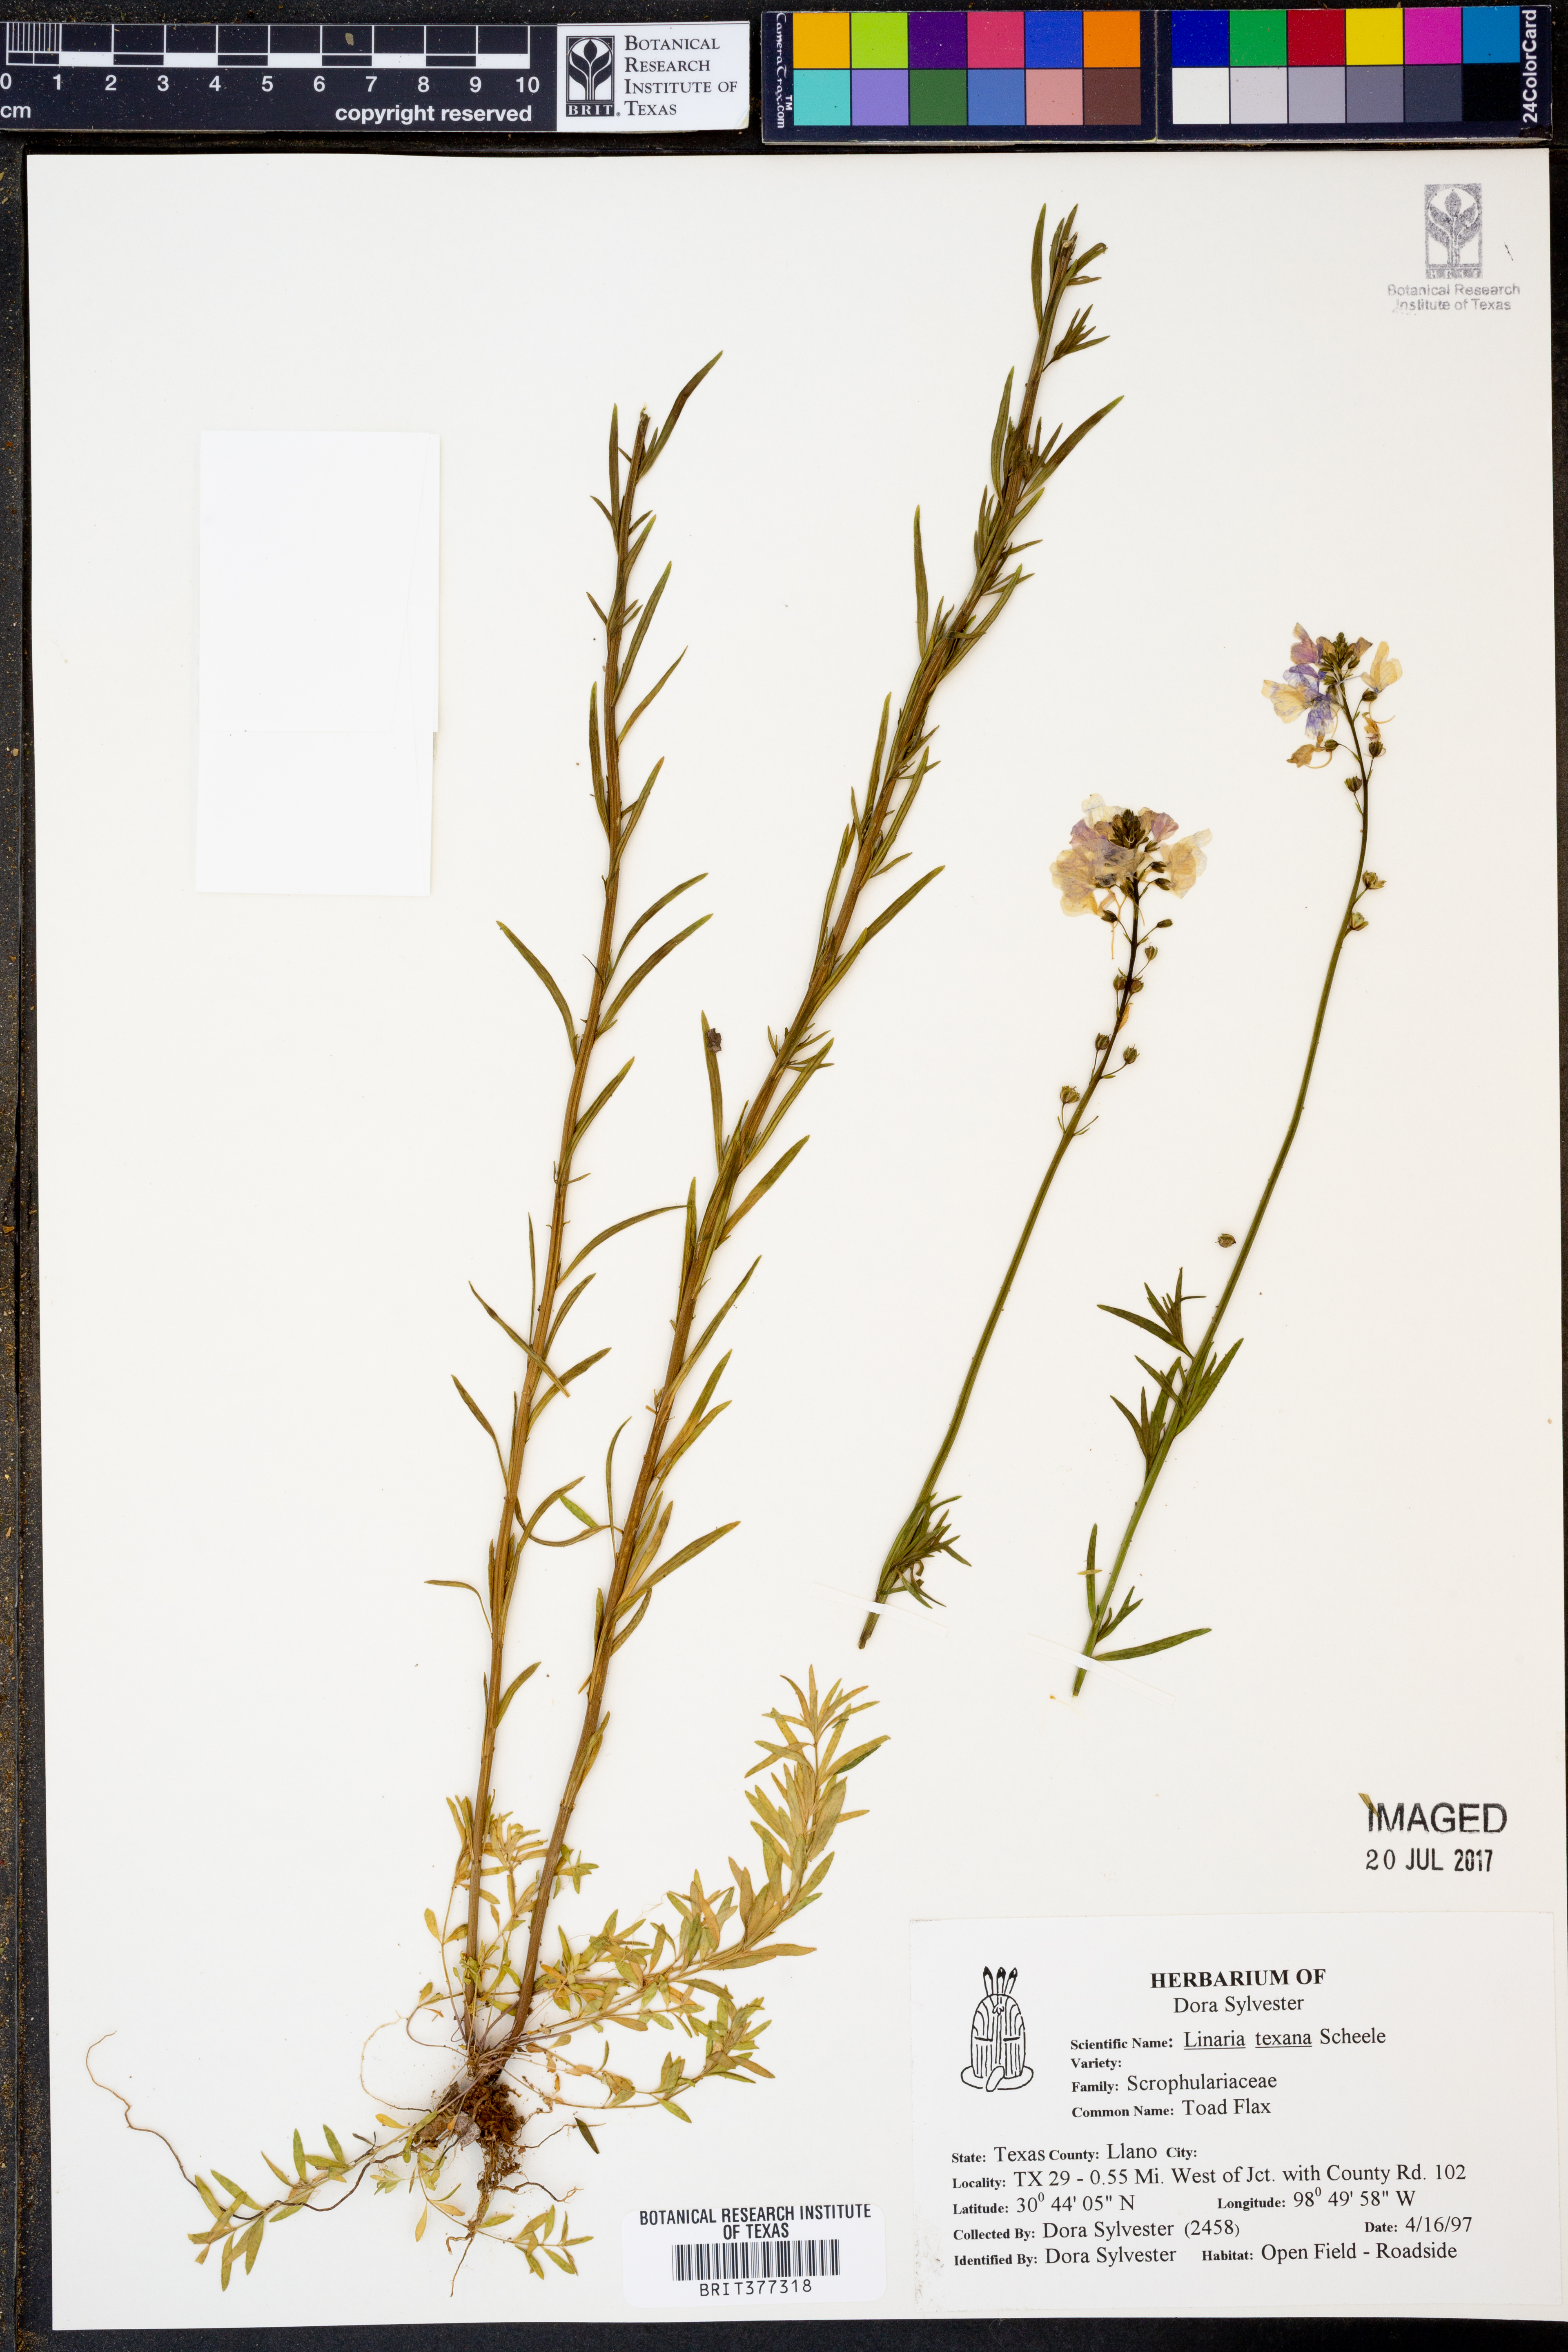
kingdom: Plantae
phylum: Tracheophyta
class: Magnoliopsida
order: Lamiales
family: Plantaginaceae
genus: Nuttallanthus
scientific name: Nuttallanthus texanus
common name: Texas toadflax
